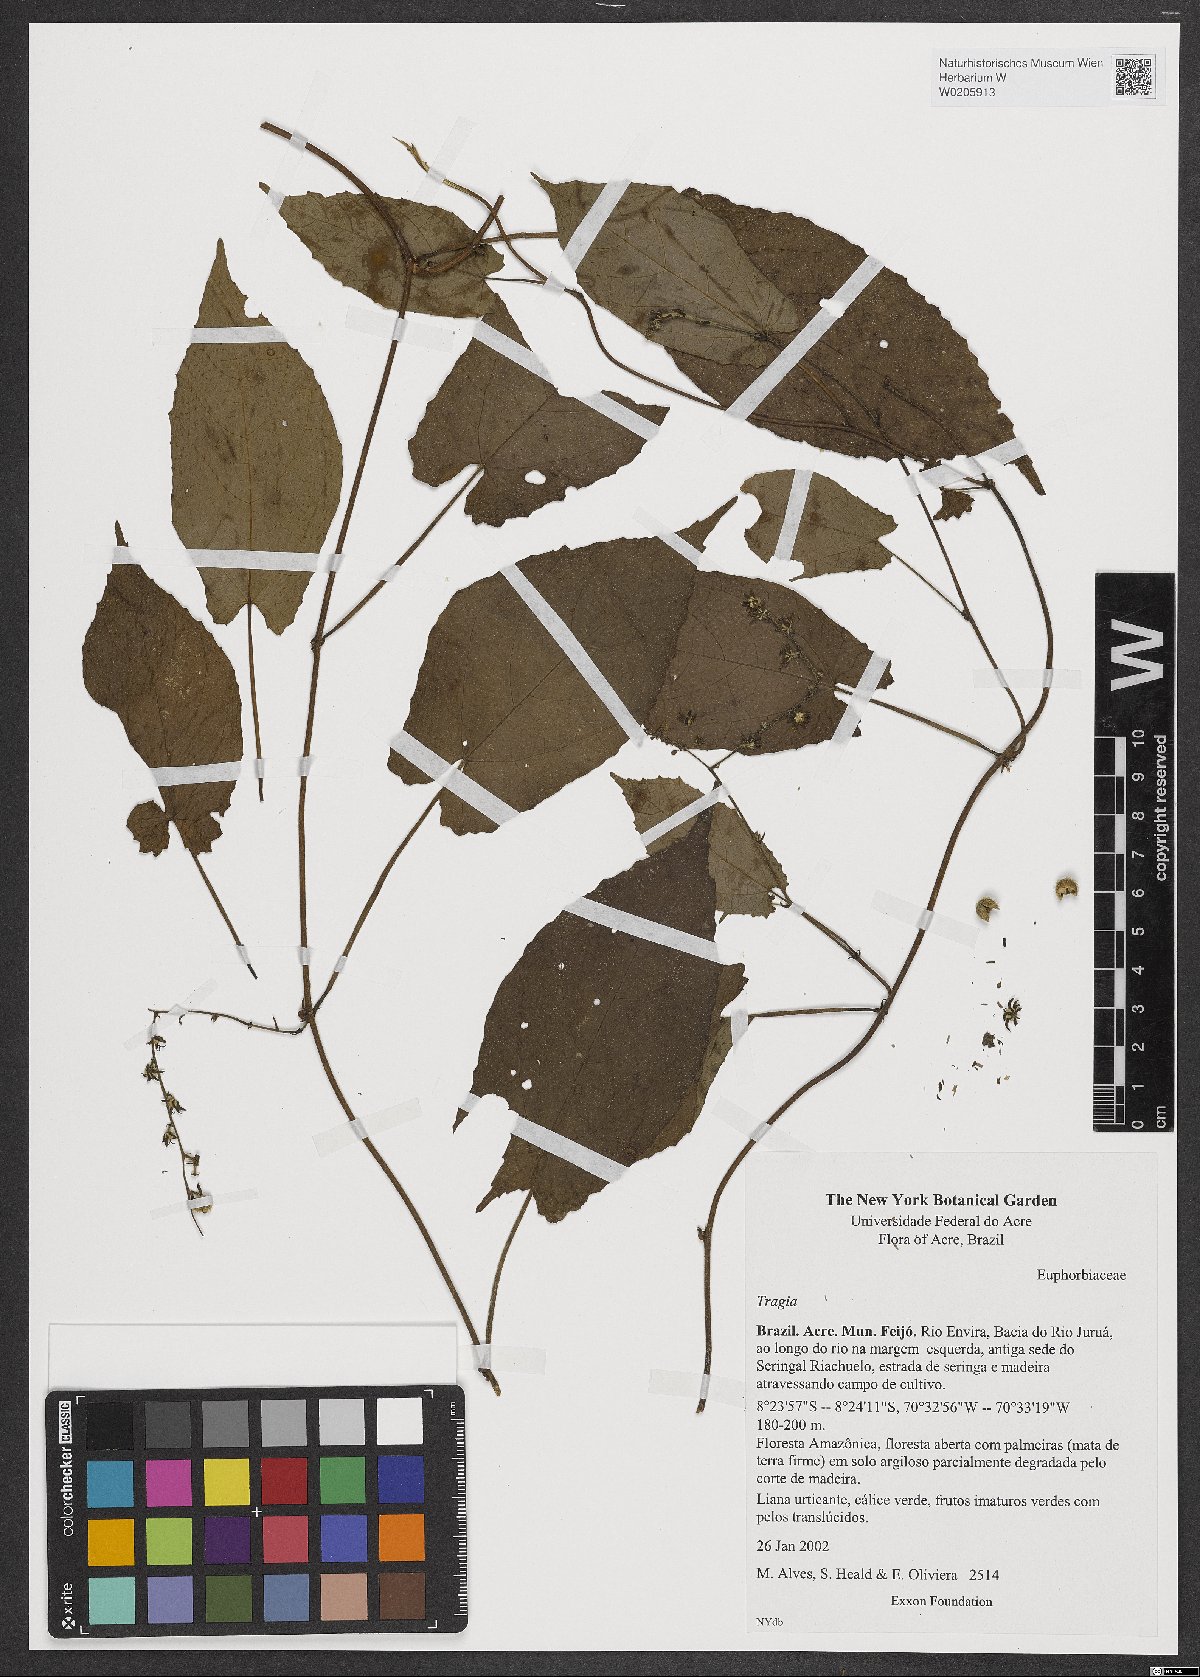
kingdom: Plantae
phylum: Tracheophyta
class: Magnoliopsida
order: Malpighiales
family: Euphorbiaceae
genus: Tragia
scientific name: Tragia
